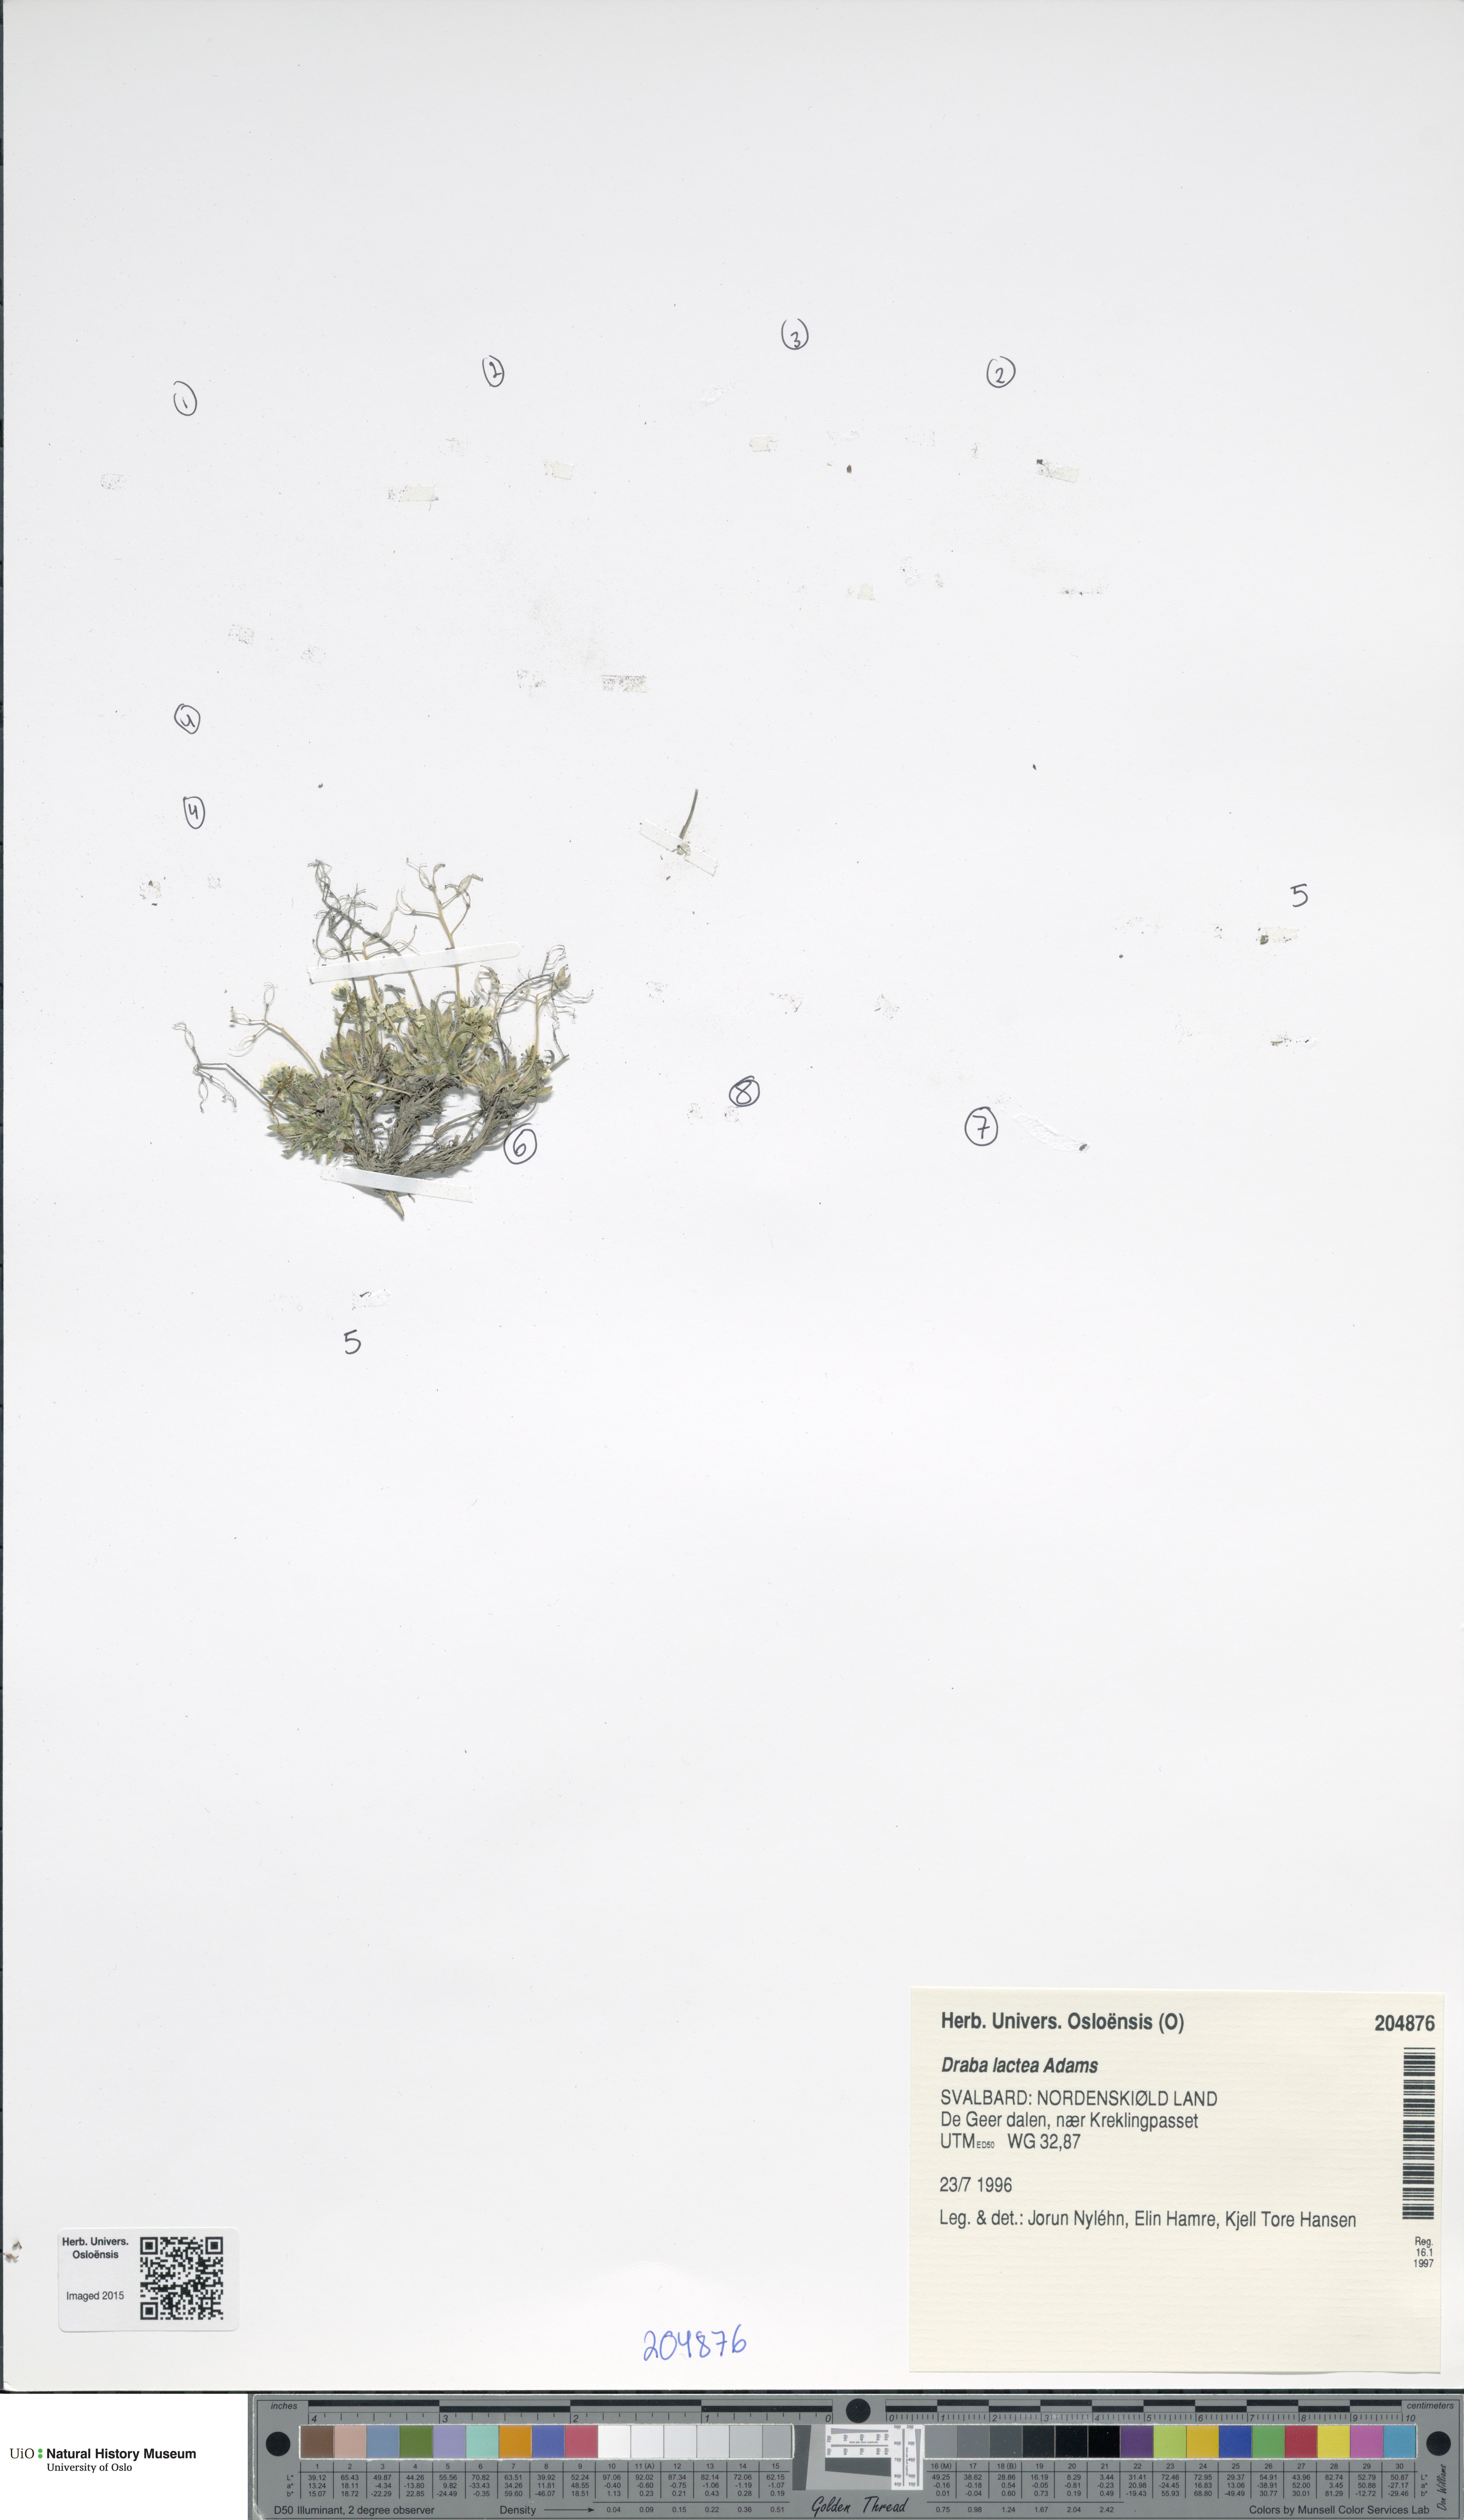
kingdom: Plantae
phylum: Tracheophyta
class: Magnoliopsida
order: Brassicales
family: Brassicaceae
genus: Draba
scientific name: Draba lactea
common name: Milky draba
